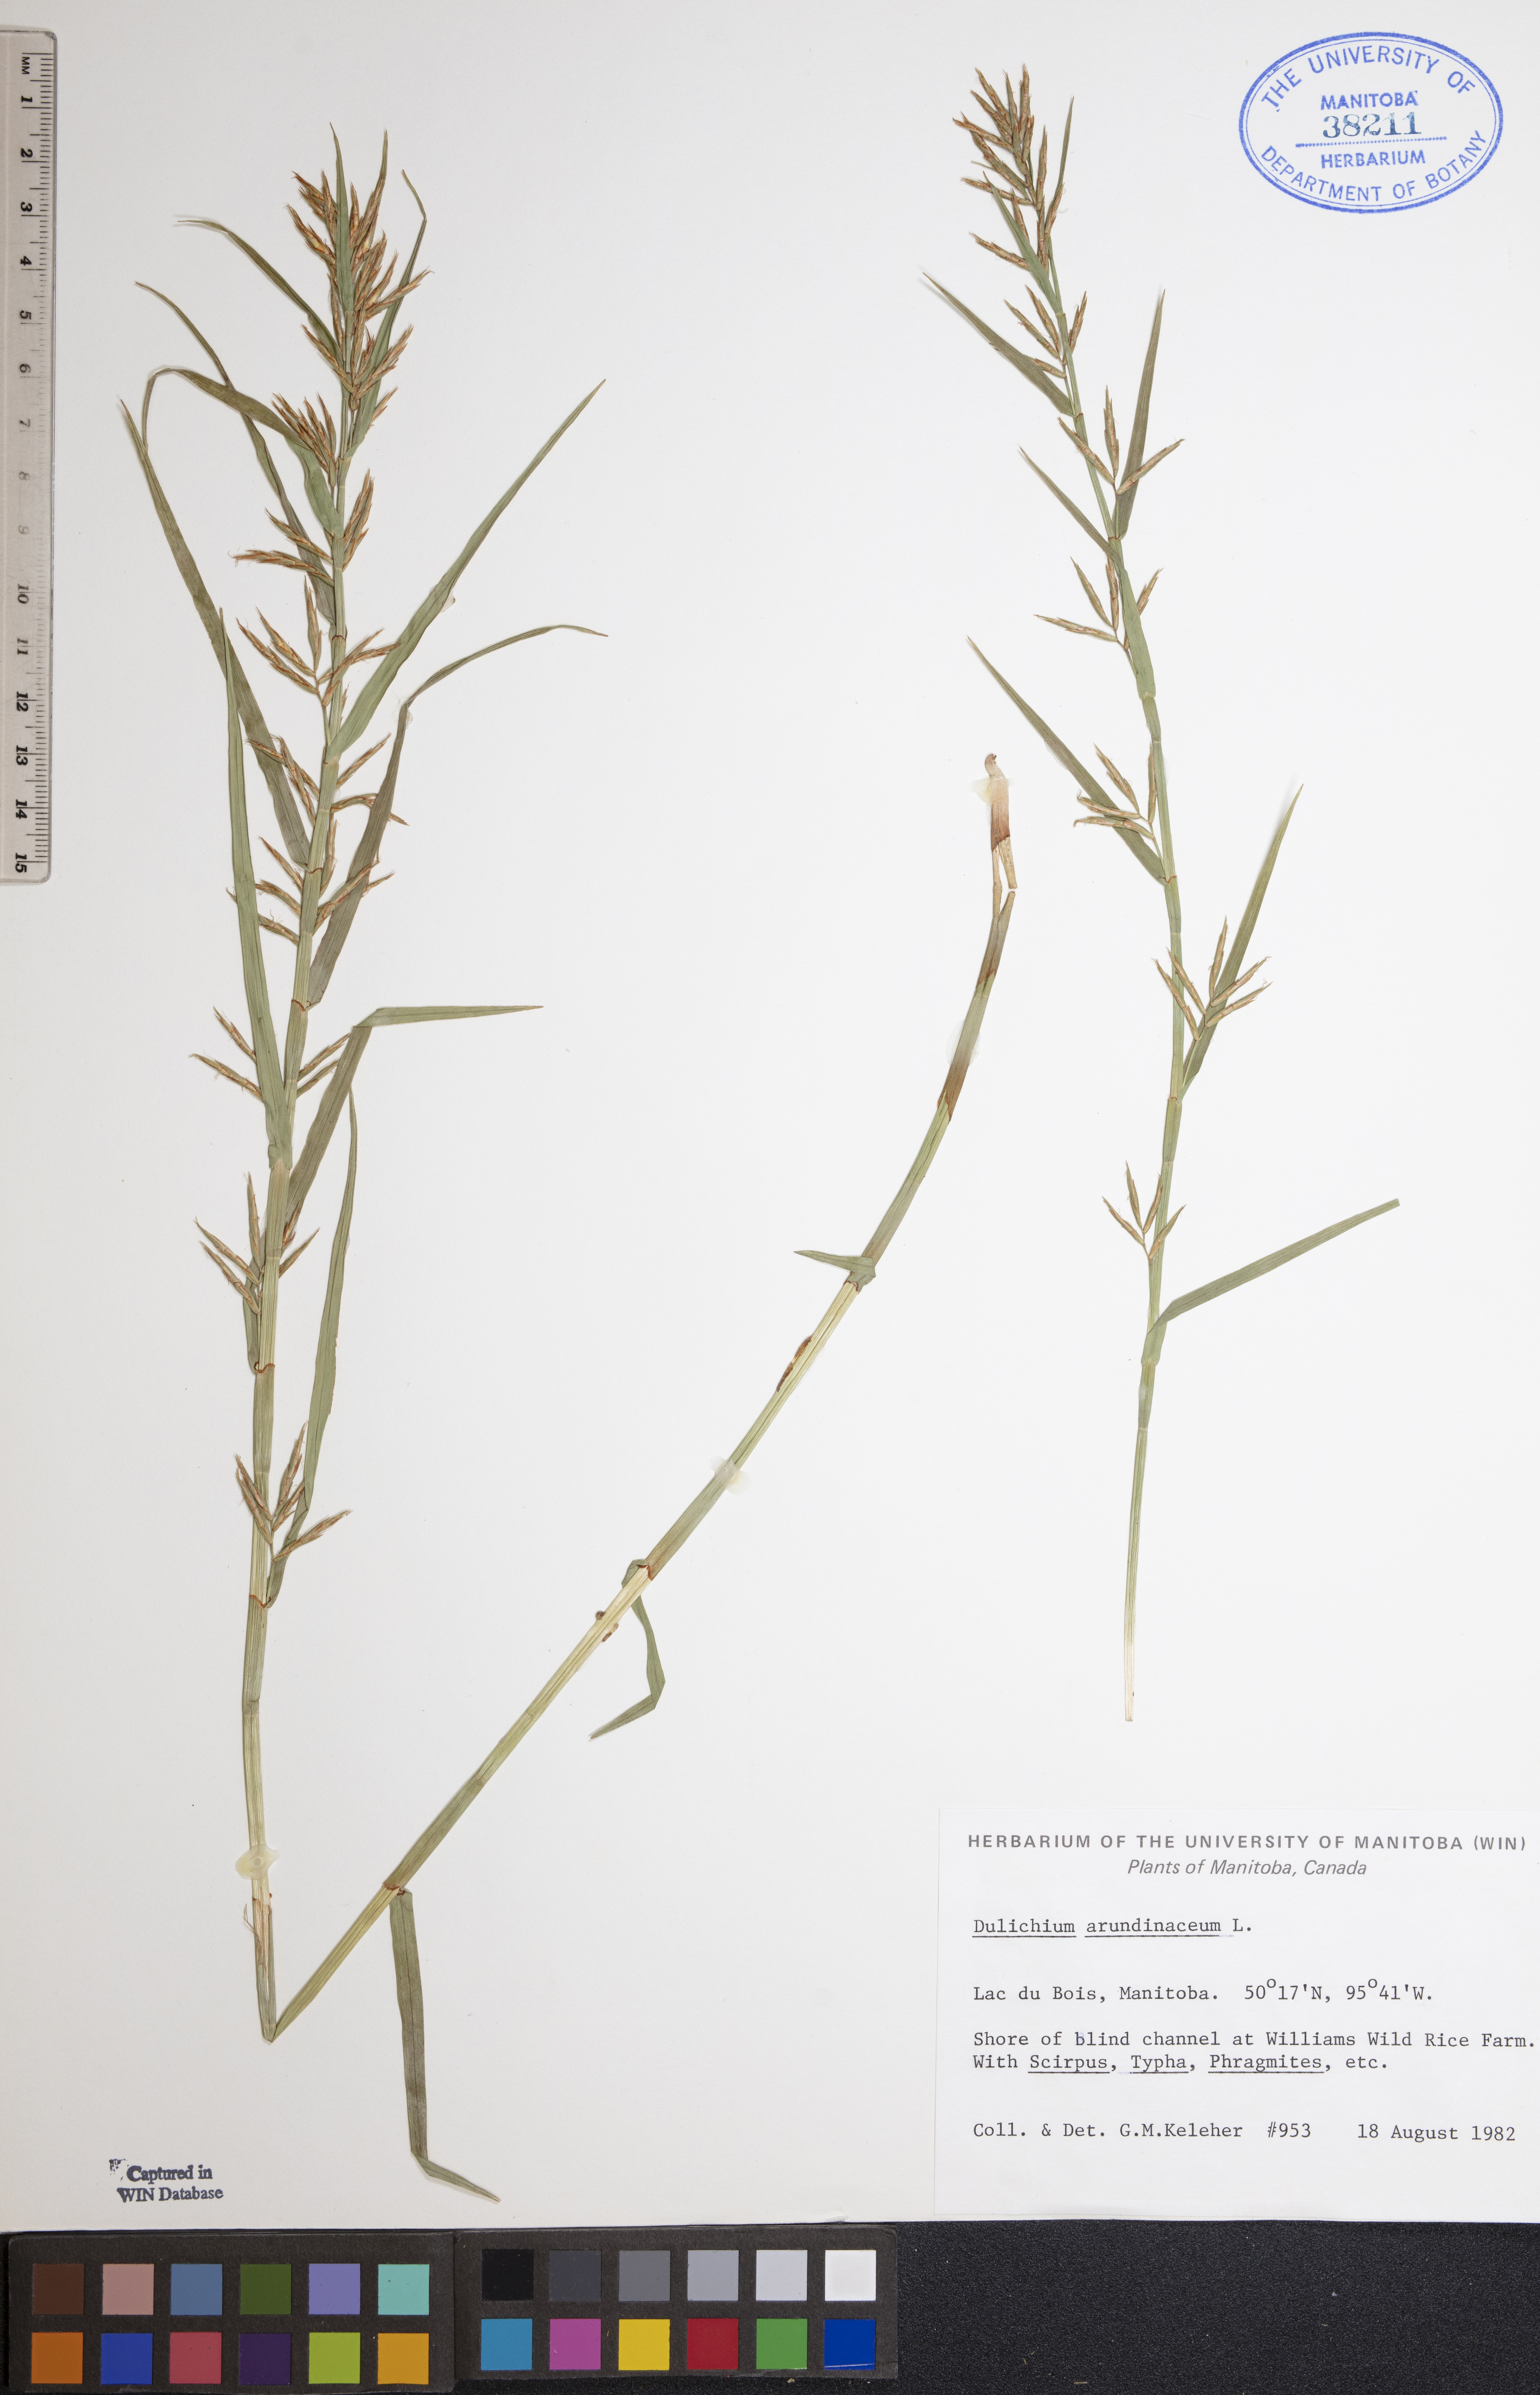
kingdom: Plantae
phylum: Tracheophyta
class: Liliopsida
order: Poales
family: Cyperaceae
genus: Dulichium
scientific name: Dulichium arundinaceum
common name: Three-way sedge
